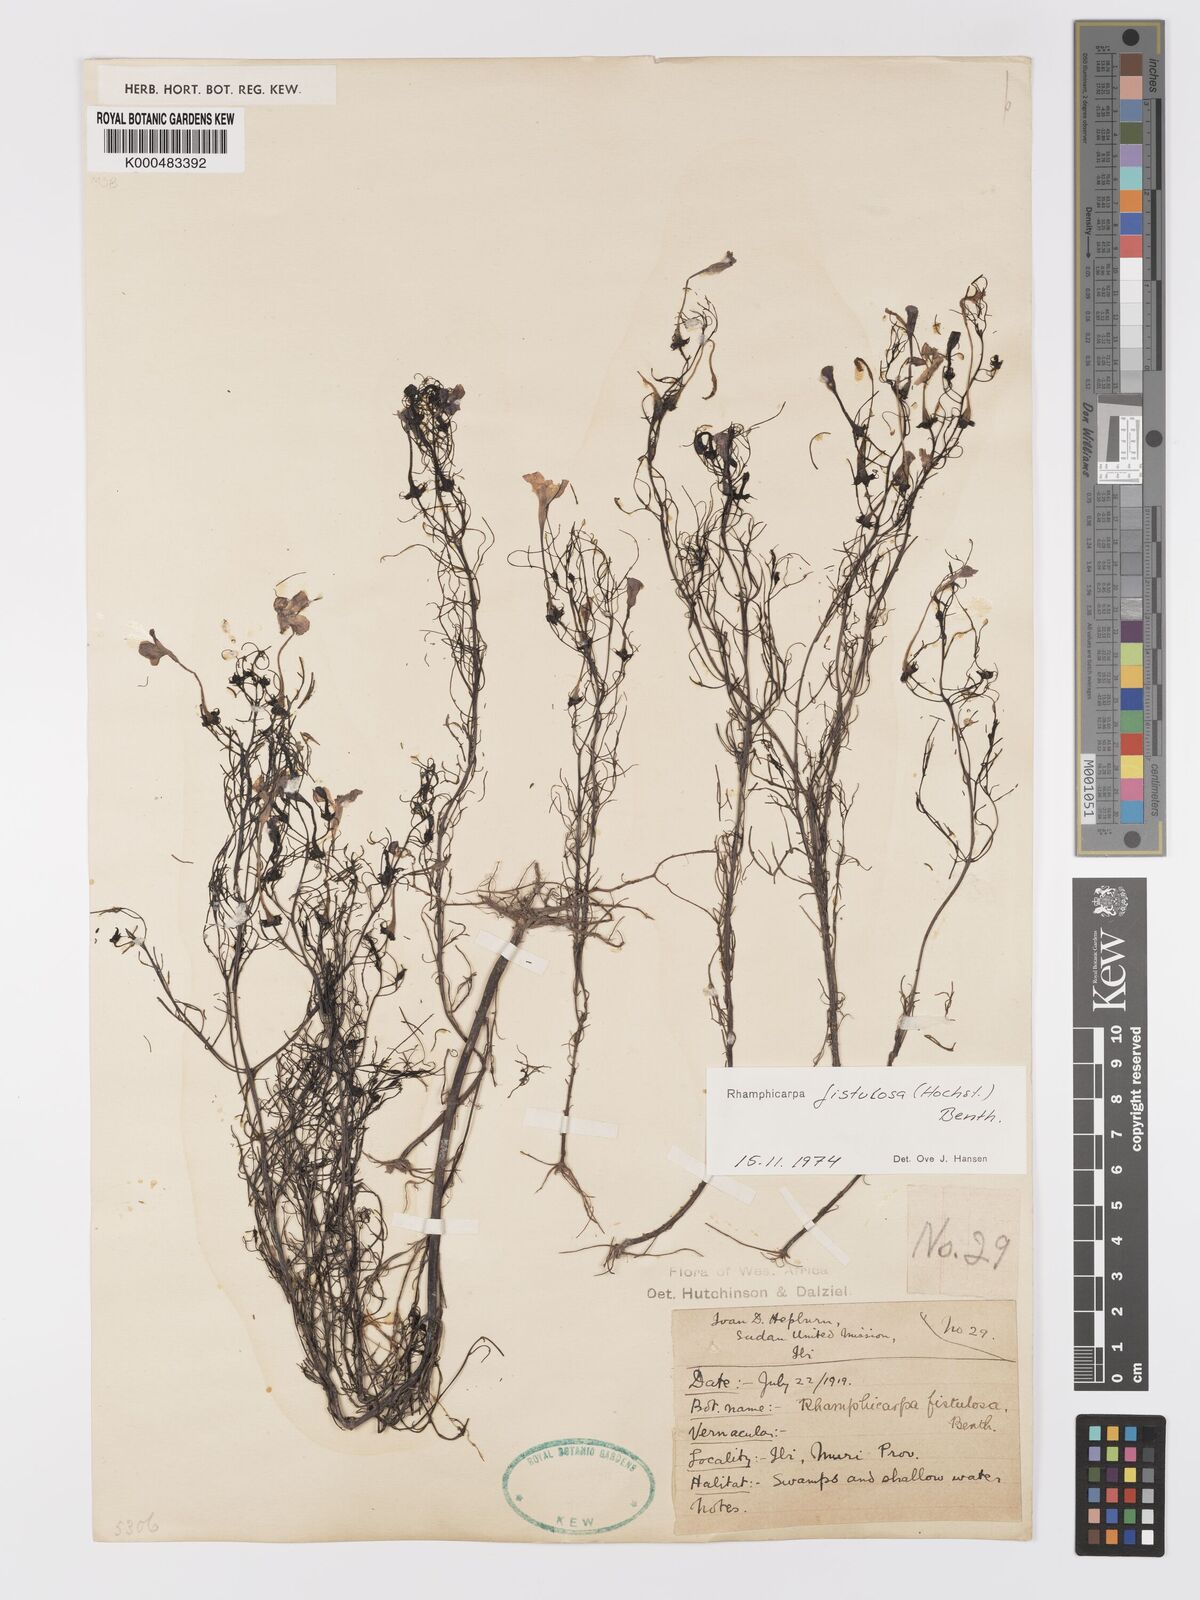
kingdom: Plantae
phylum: Tracheophyta
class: Magnoliopsida
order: Lamiales
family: Orobanchaceae
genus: Rhamphicarpa
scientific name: Rhamphicarpa fistulosa
